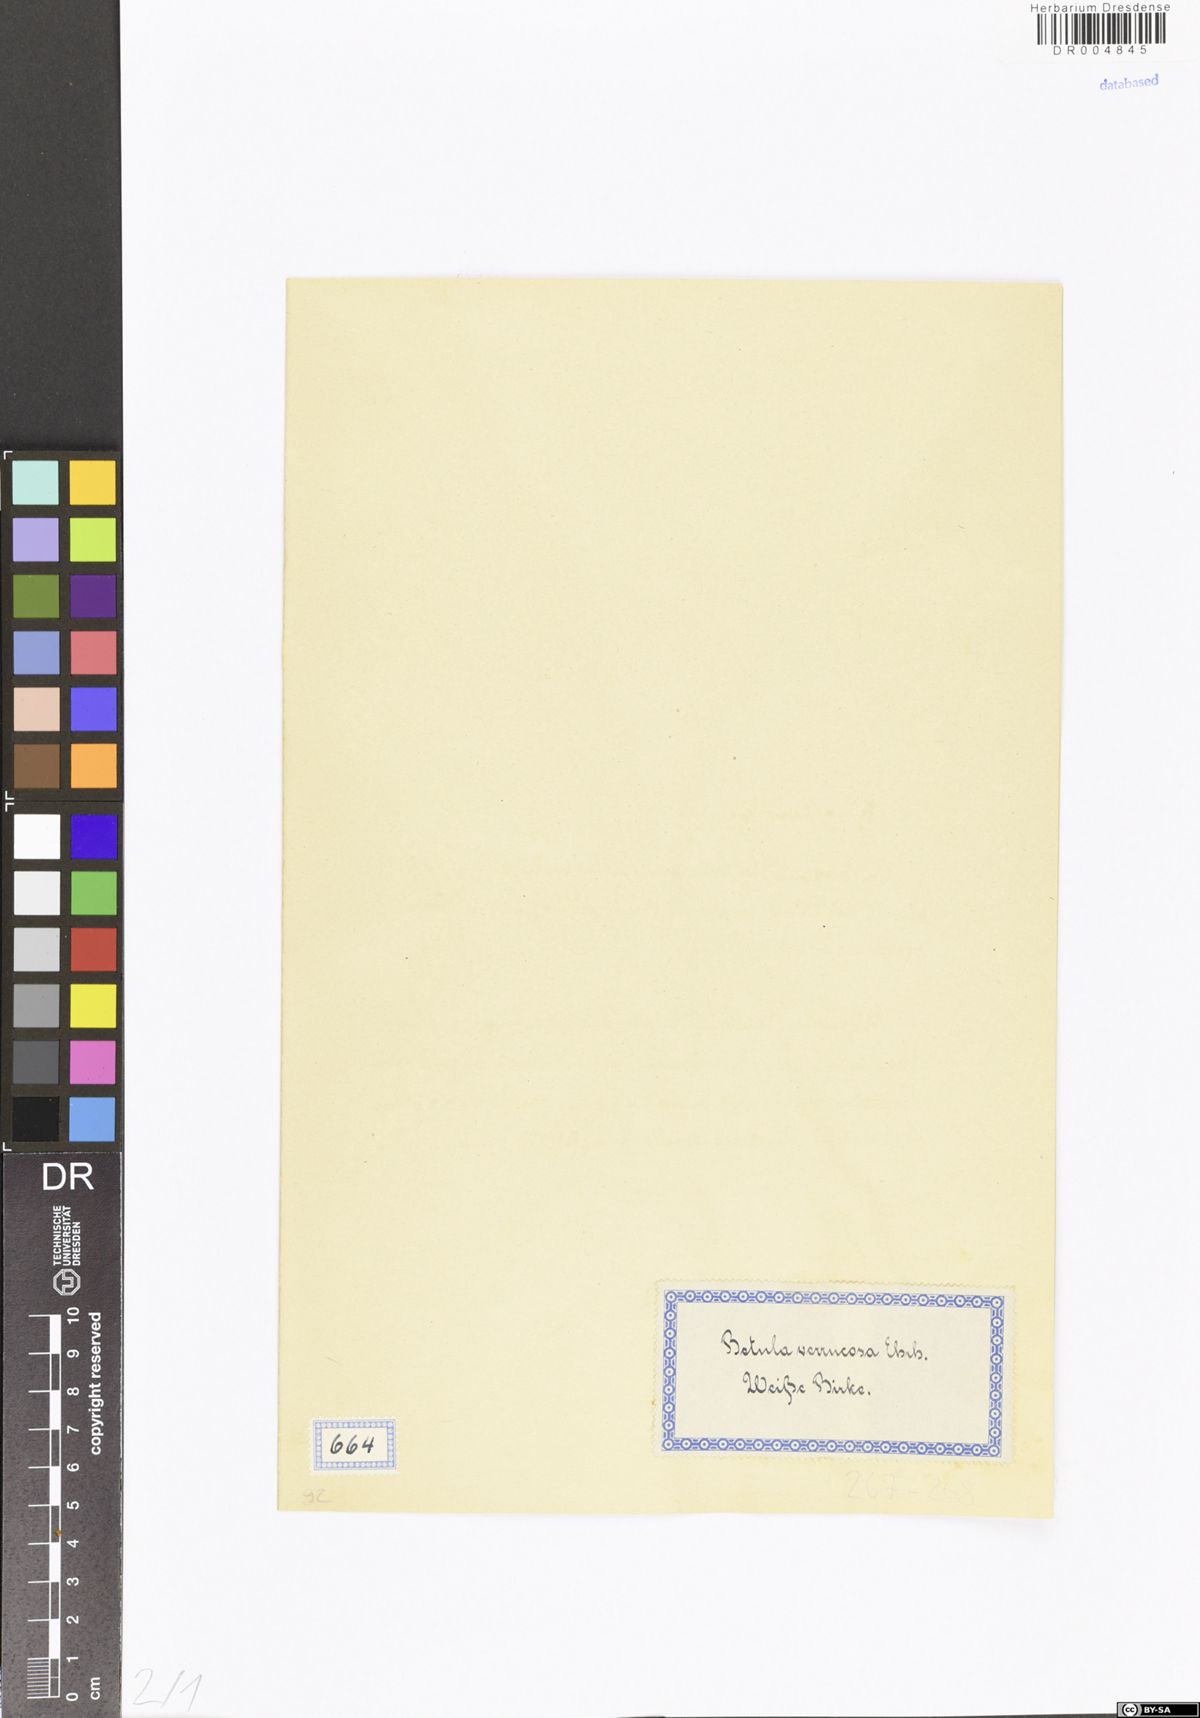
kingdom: Plantae
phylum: Tracheophyta
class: Magnoliopsida
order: Fagales
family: Betulaceae
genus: Betula
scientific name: Betula pendula
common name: Silver birch
